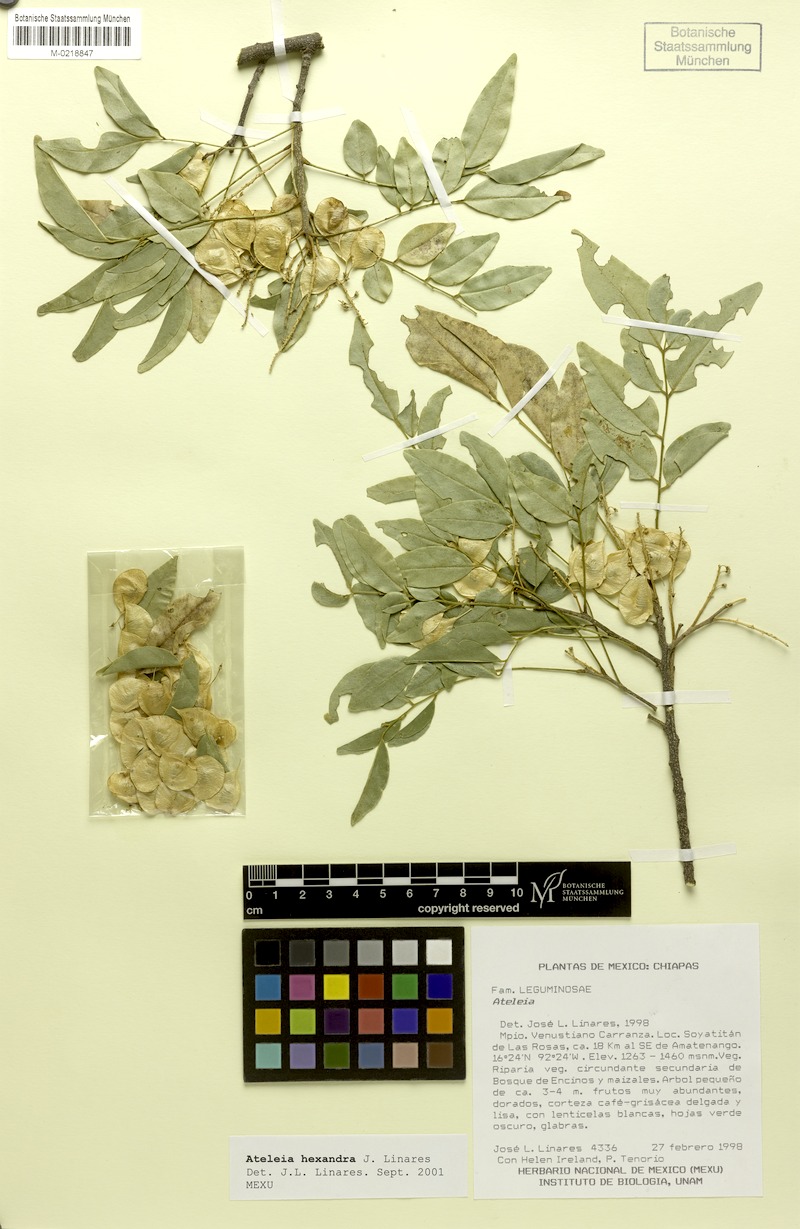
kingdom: Plantae
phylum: Tracheophyta
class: Magnoliopsida
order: Fabales
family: Fabaceae
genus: Ateleia
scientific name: Ateleia hexandra
